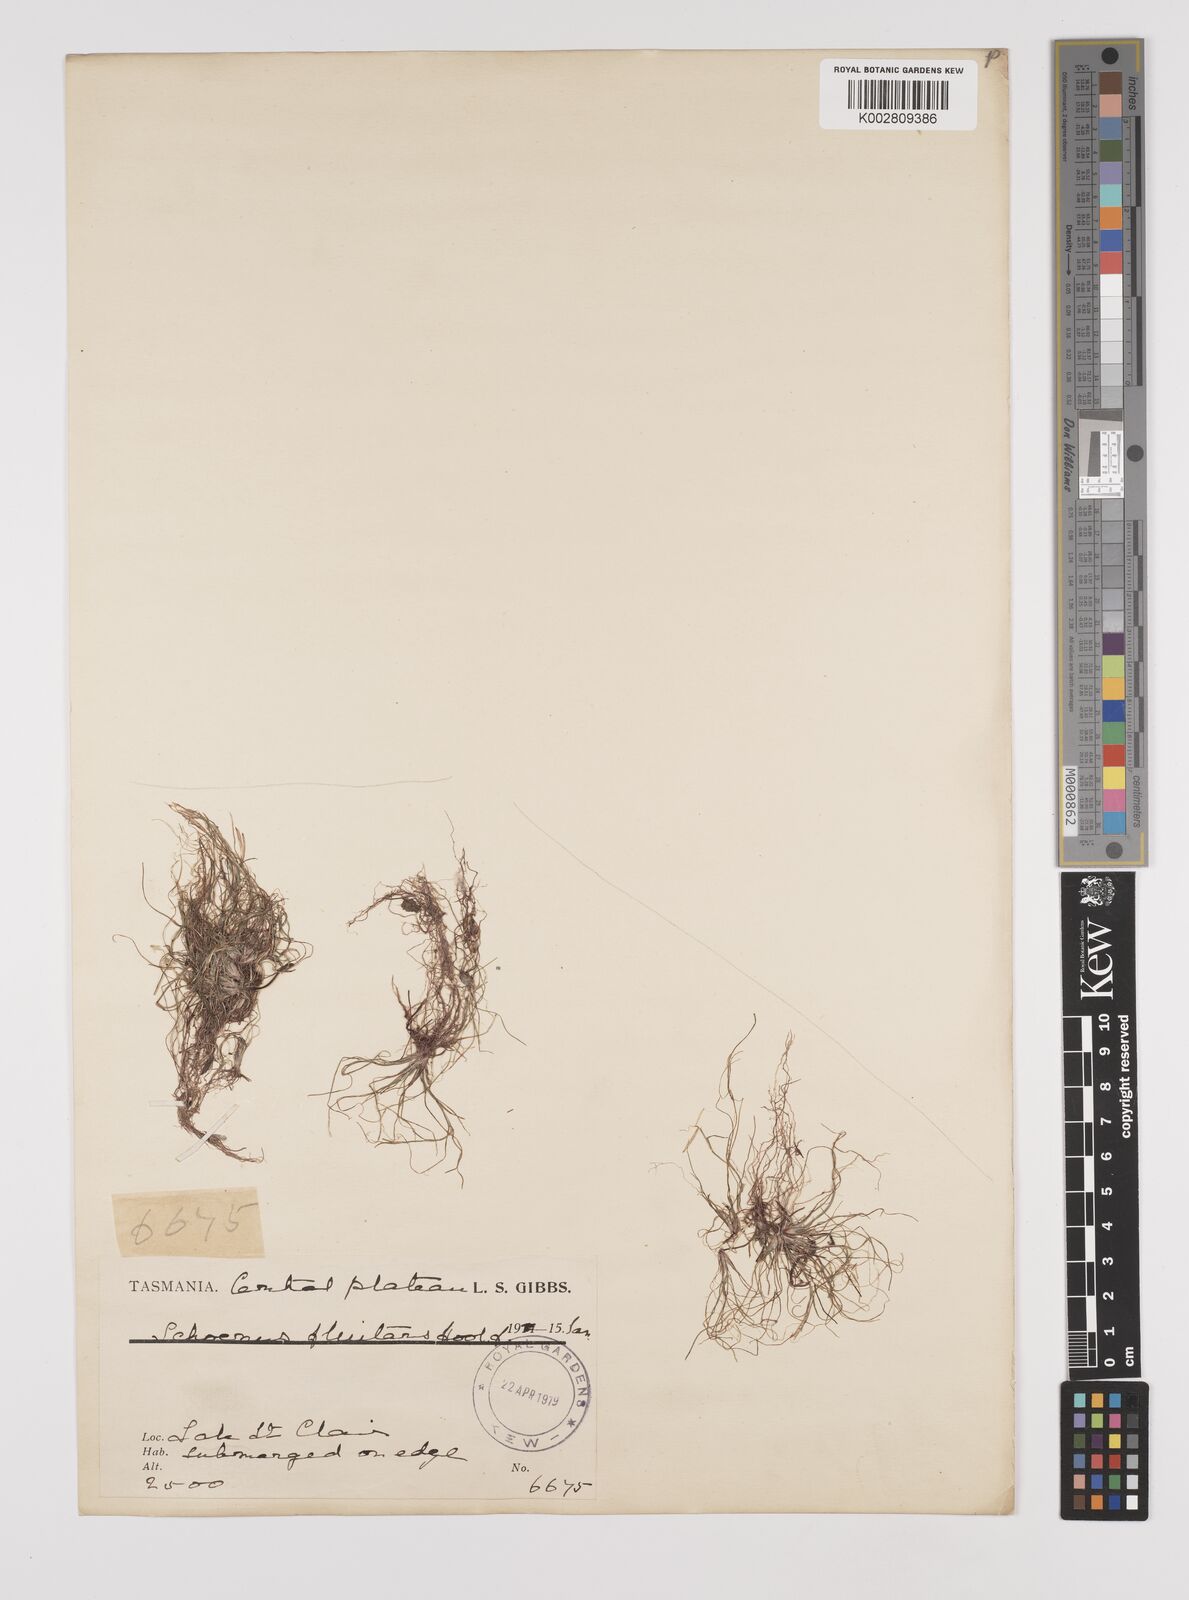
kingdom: Plantae
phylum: Tracheophyta
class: Liliopsida
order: Poales
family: Cyperaceae
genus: Schoenus
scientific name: Schoenus fluitans
